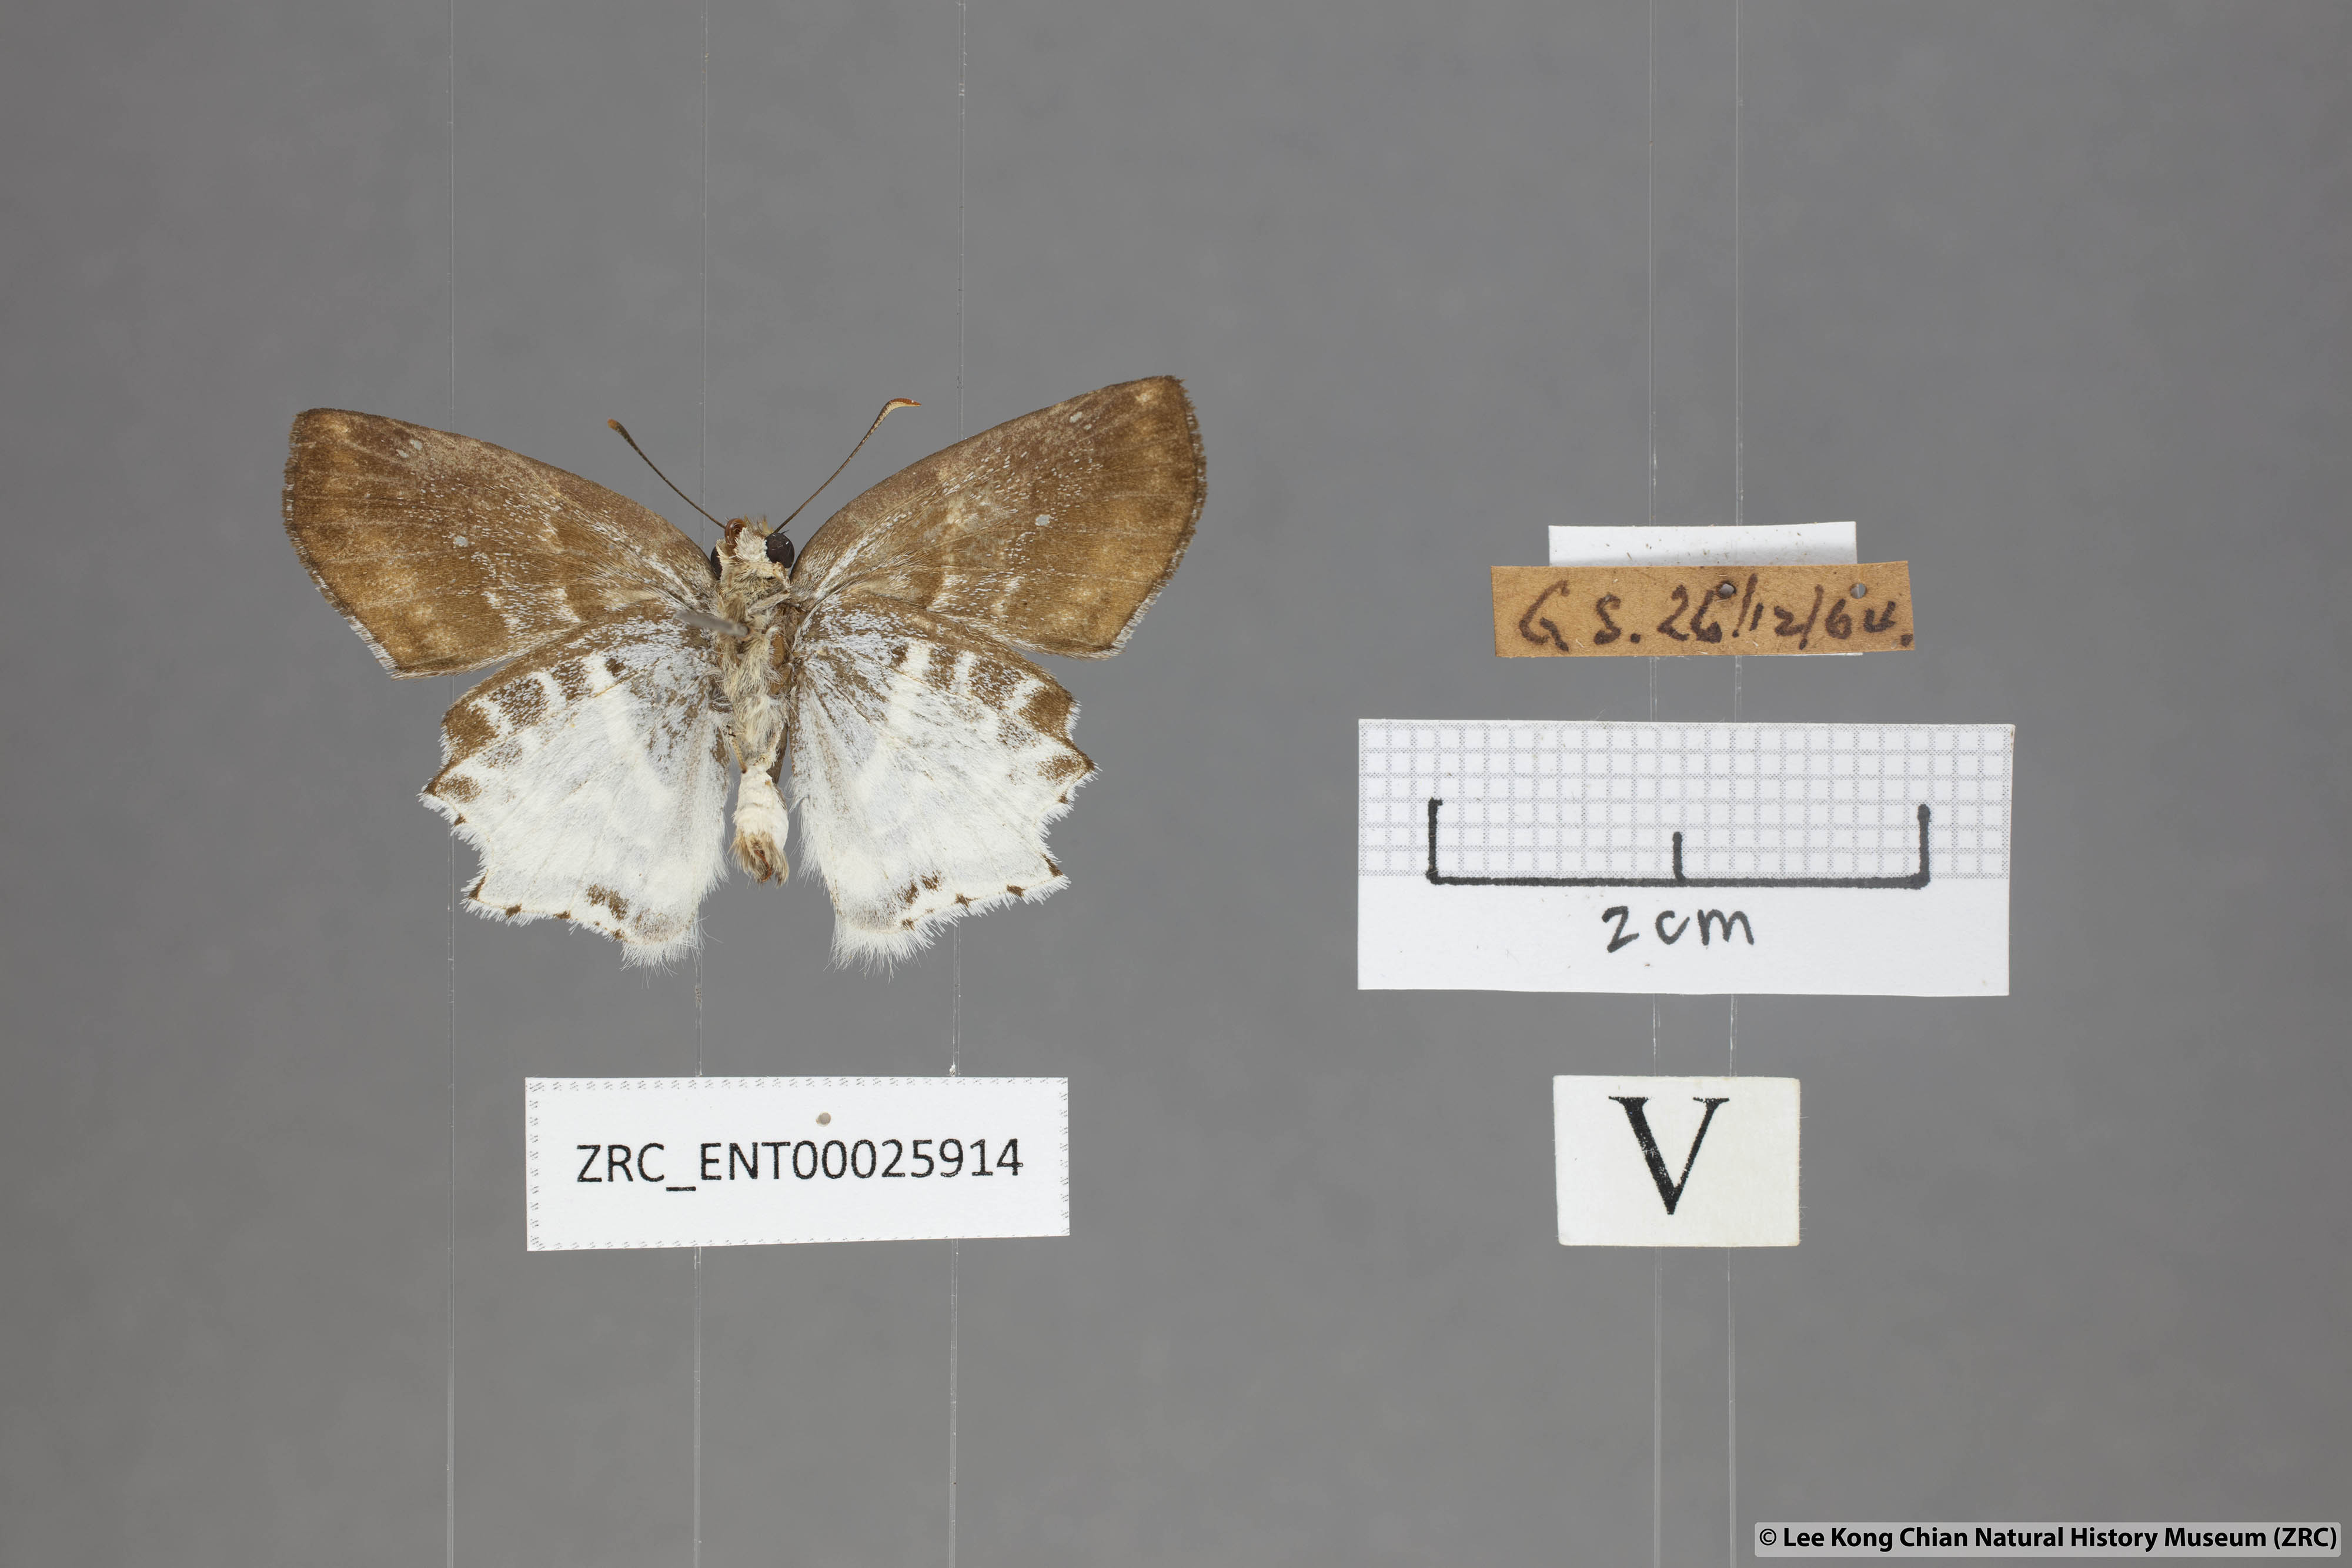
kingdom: Animalia
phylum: Arthropoda
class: Insecta
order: Lepidoptera
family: Hesperiidae
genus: Odontoptilum
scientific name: Odontoptilum pygela
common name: Banded angle
